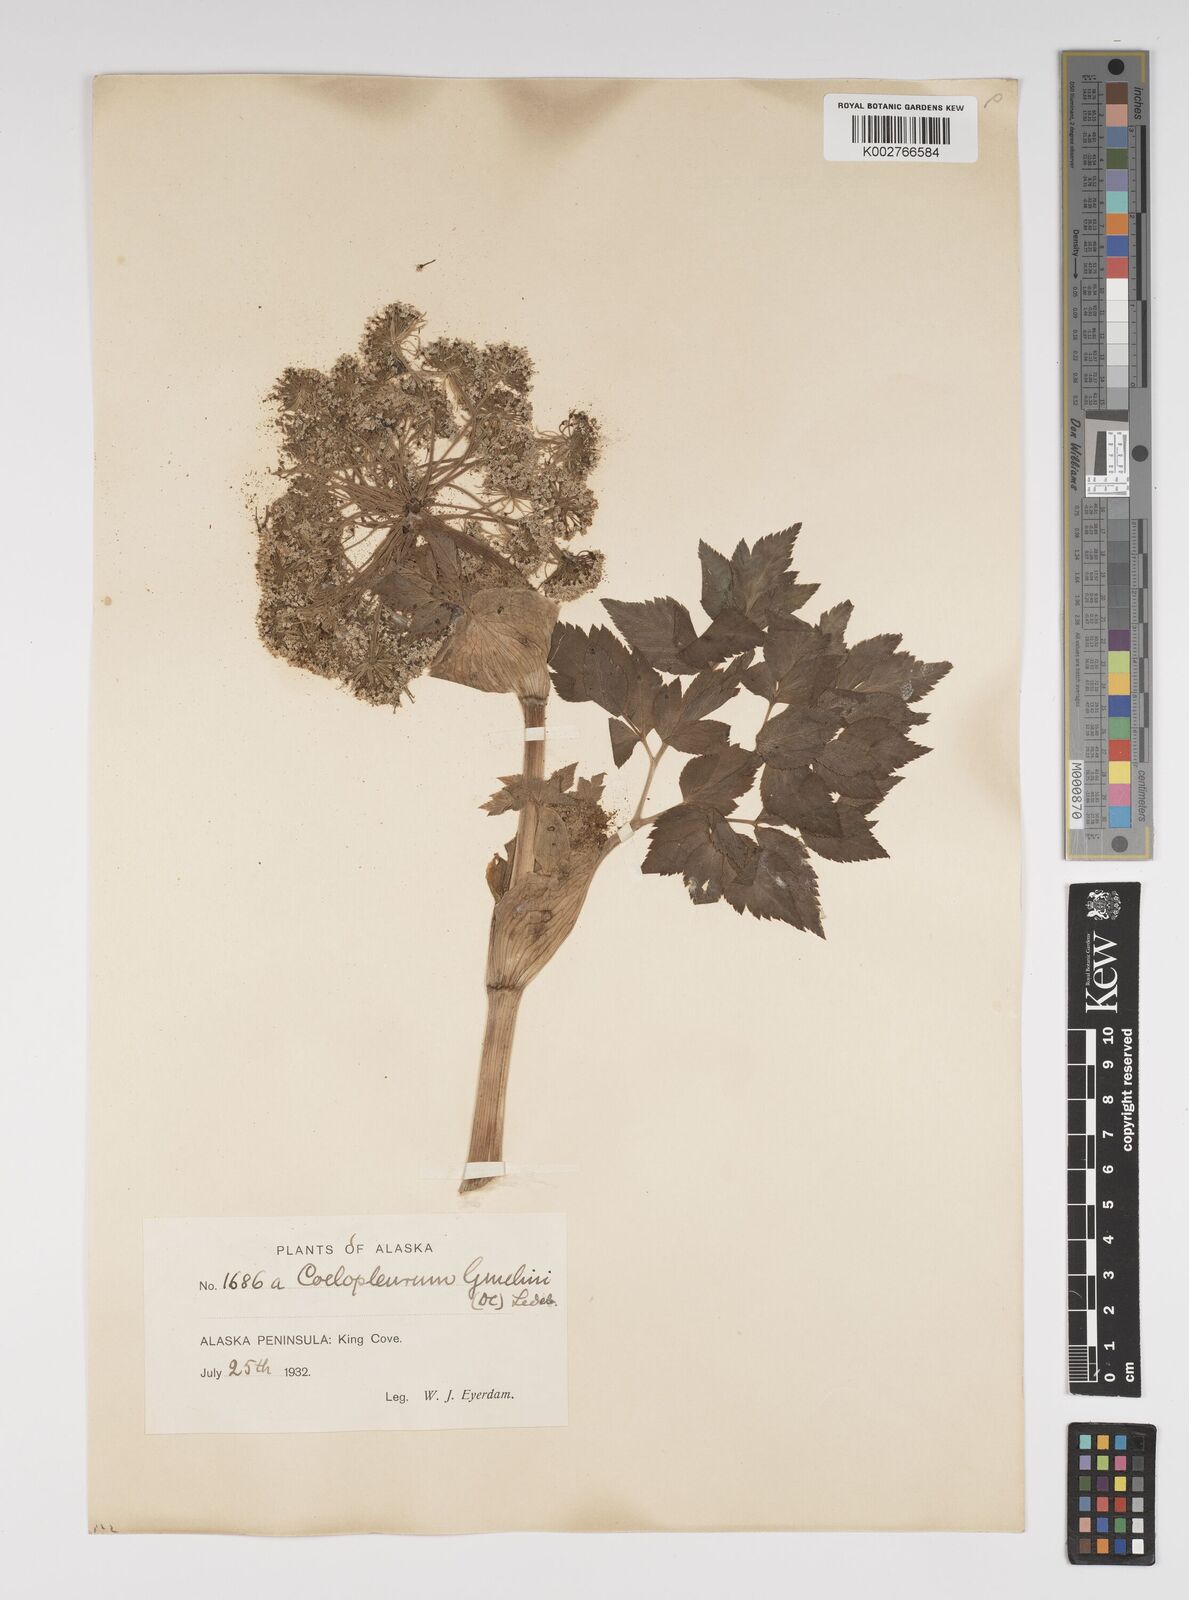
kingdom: Plantae
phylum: Tracheophyta
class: Magnoliopsida
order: Apiales
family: Apiaceae
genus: Angelica
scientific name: Angelica lucida
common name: Seabeach angelica
